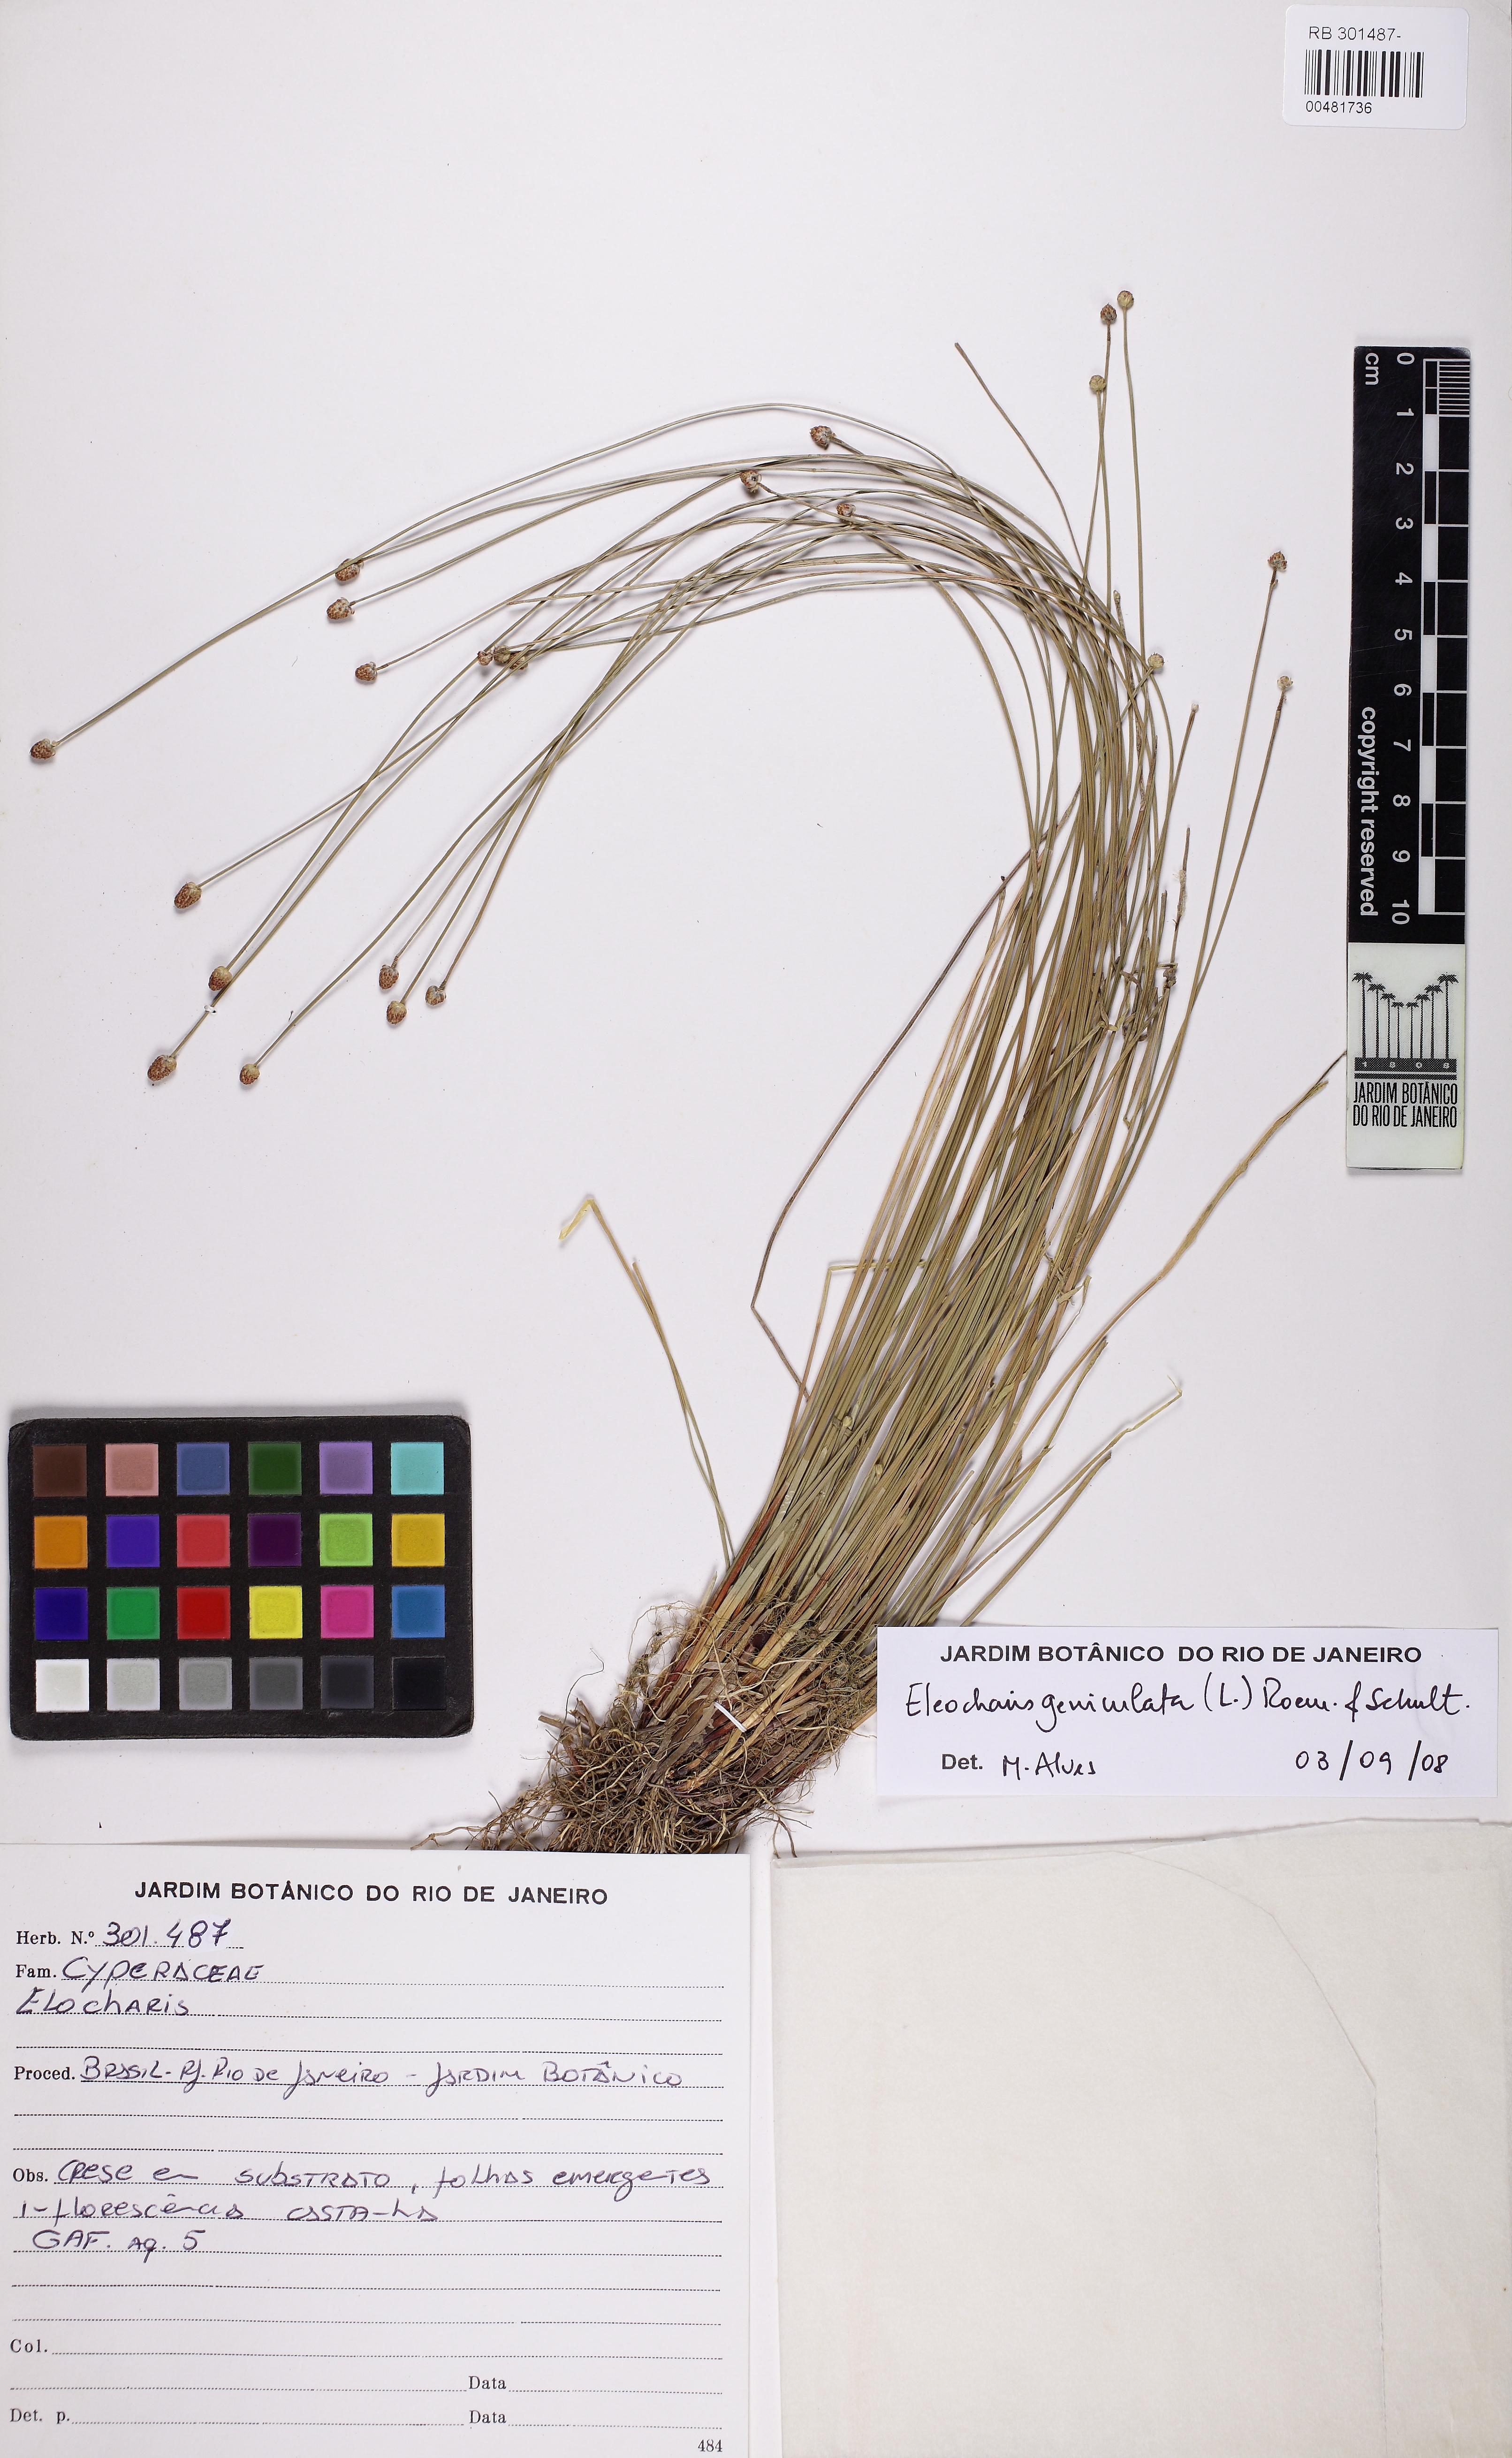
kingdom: Plantae
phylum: Tracheophyta
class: Liliopsida
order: Poales
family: Cyperaceae
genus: Eleocharis
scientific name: Eleocharis geniculata
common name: Canada spikesedge
